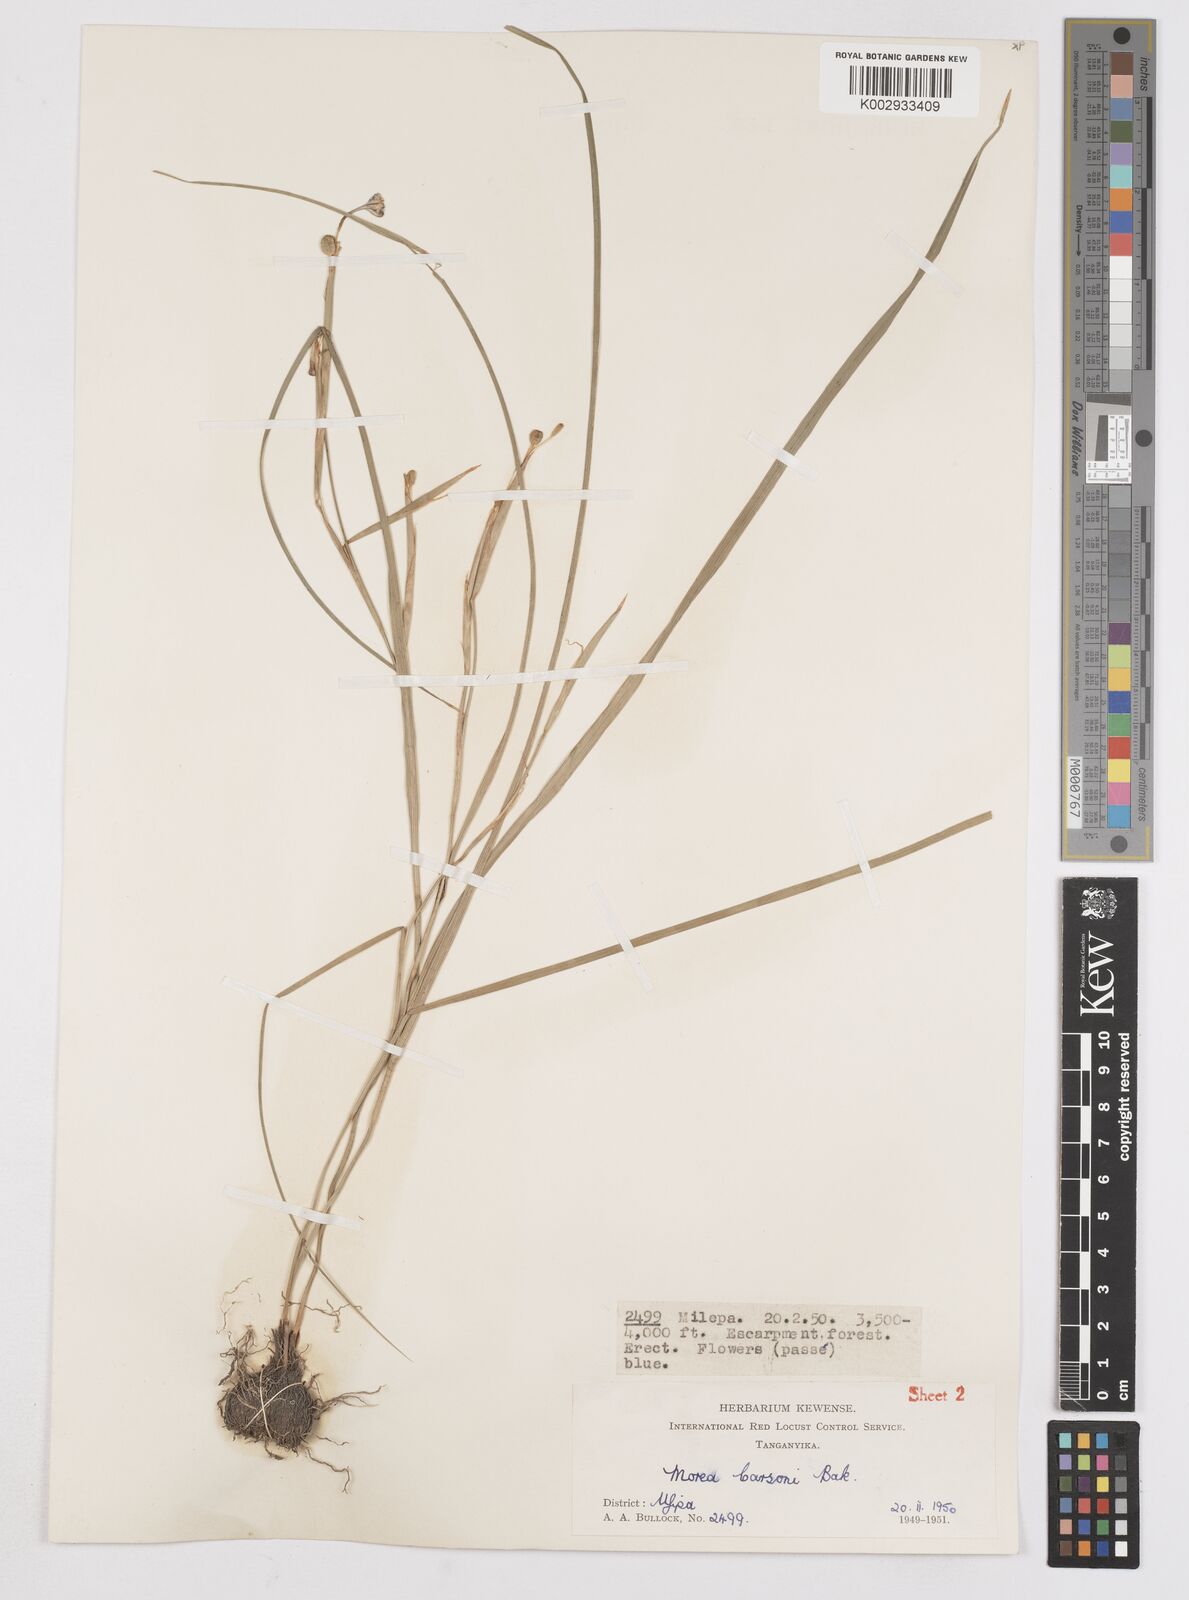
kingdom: Plantae
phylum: Tracheophyta
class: Liliopsida
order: Asparagales
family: Iridaceae
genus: Moraea
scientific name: Moraea carsonii
